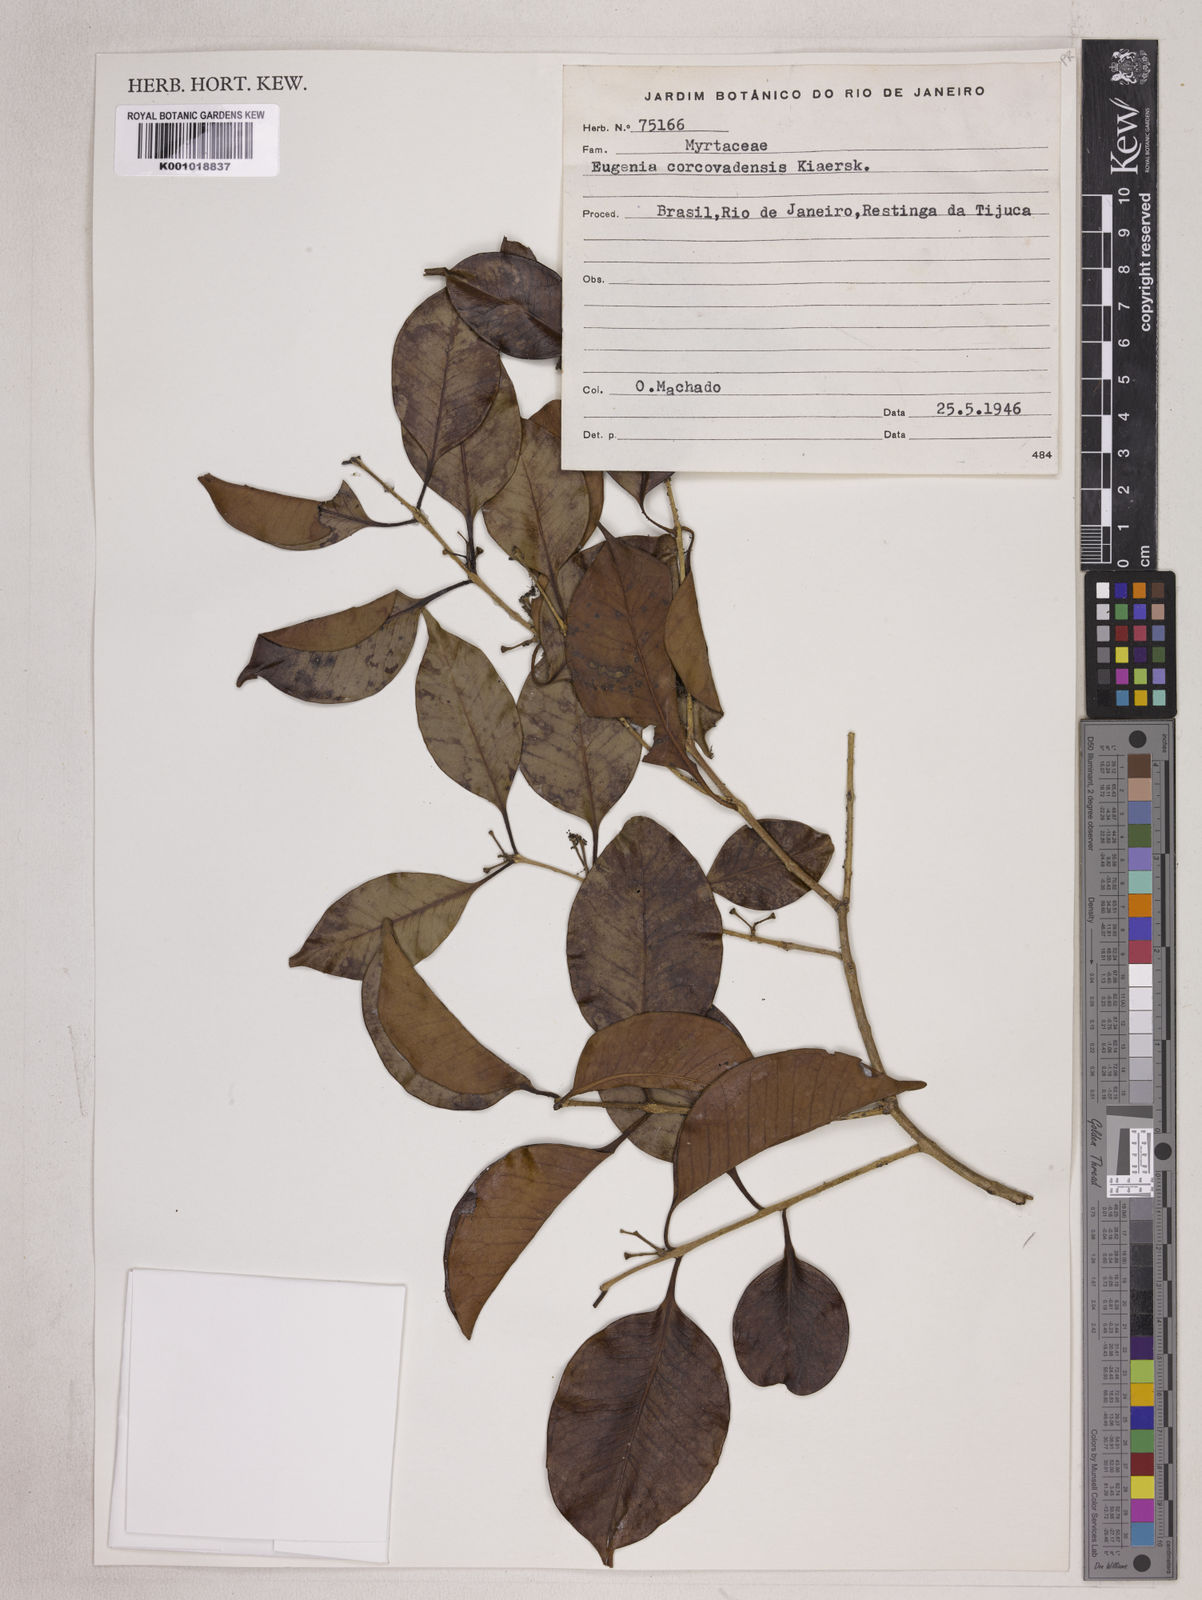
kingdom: Plantae
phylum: Tracheophyta
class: Magnoliopsida
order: Myrtales
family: Myrtaceae
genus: Eugenia
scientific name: Eugenia copacabanensis
